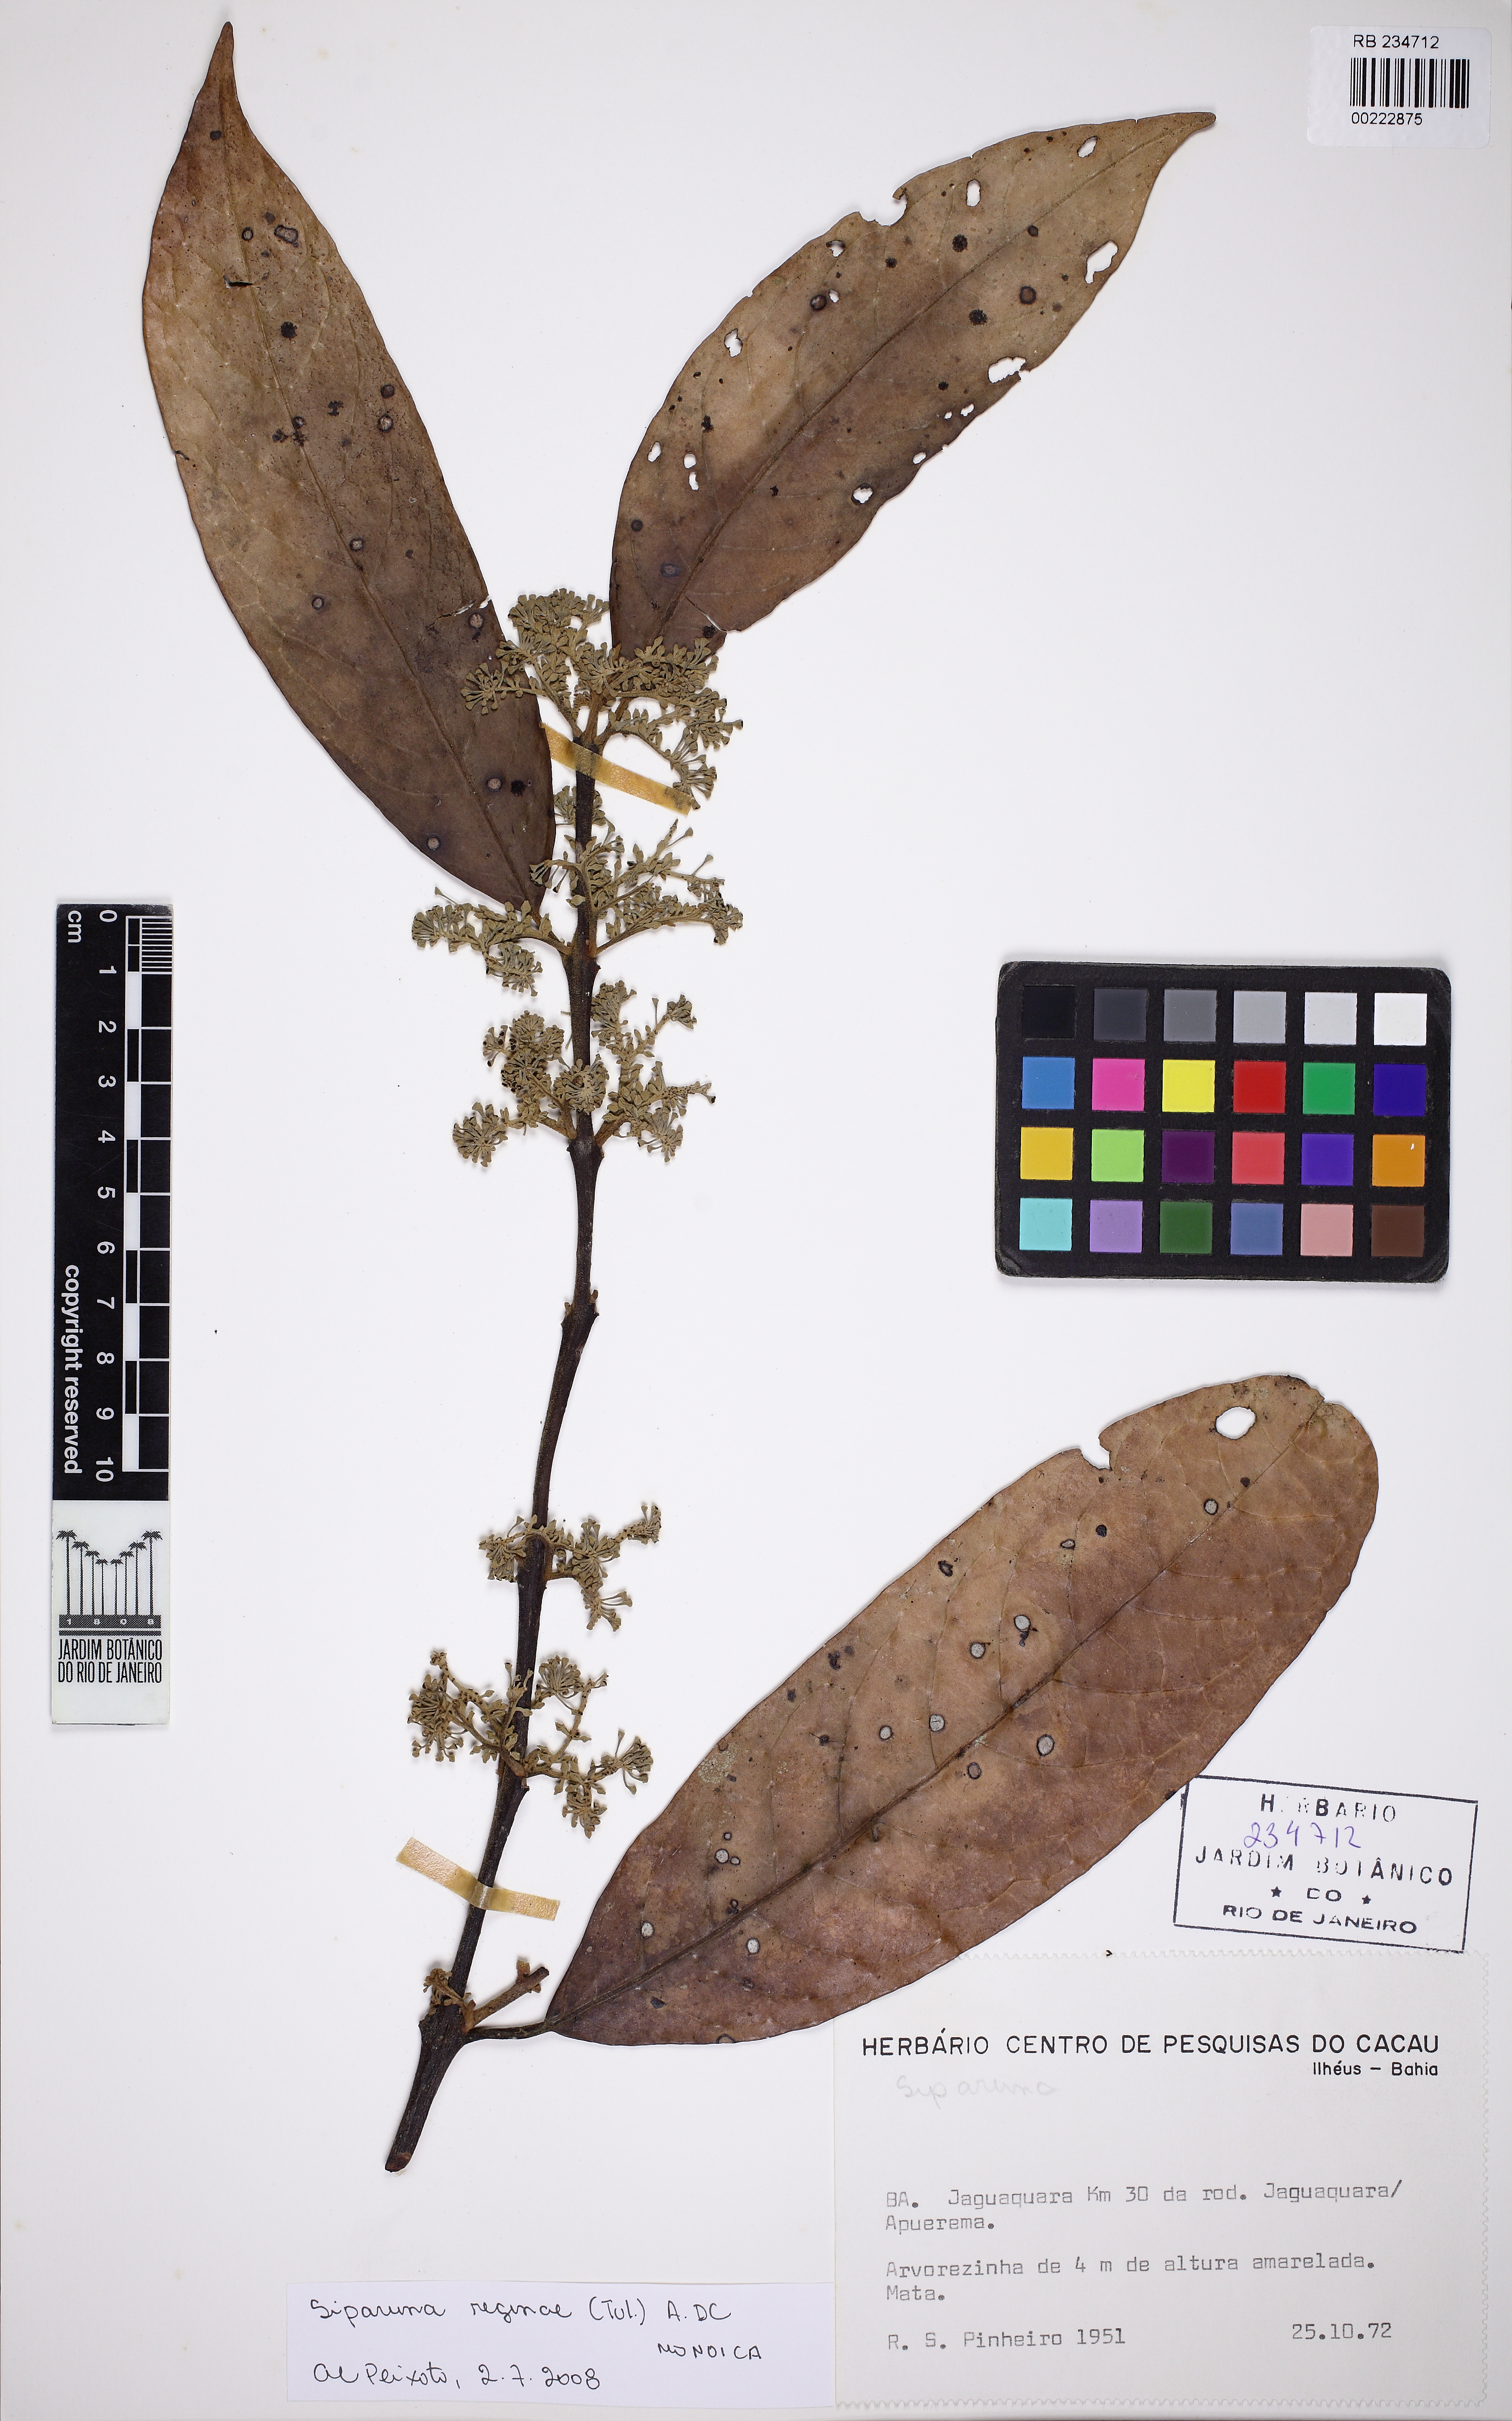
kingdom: Plantae
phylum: Tracheophyta
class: Magnoliopsida
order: Laurales
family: Siparunaceae
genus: Siparuna
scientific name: Siparuna reginae
